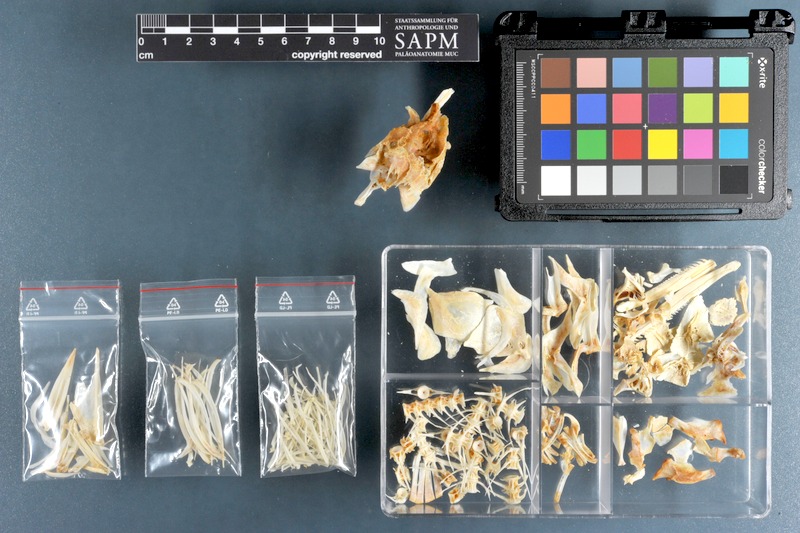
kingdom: Animalia
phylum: Chordata
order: Cypriniformes
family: Cyprinidae
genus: Capoeta
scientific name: Capoeta trutta
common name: Longspine scraper
